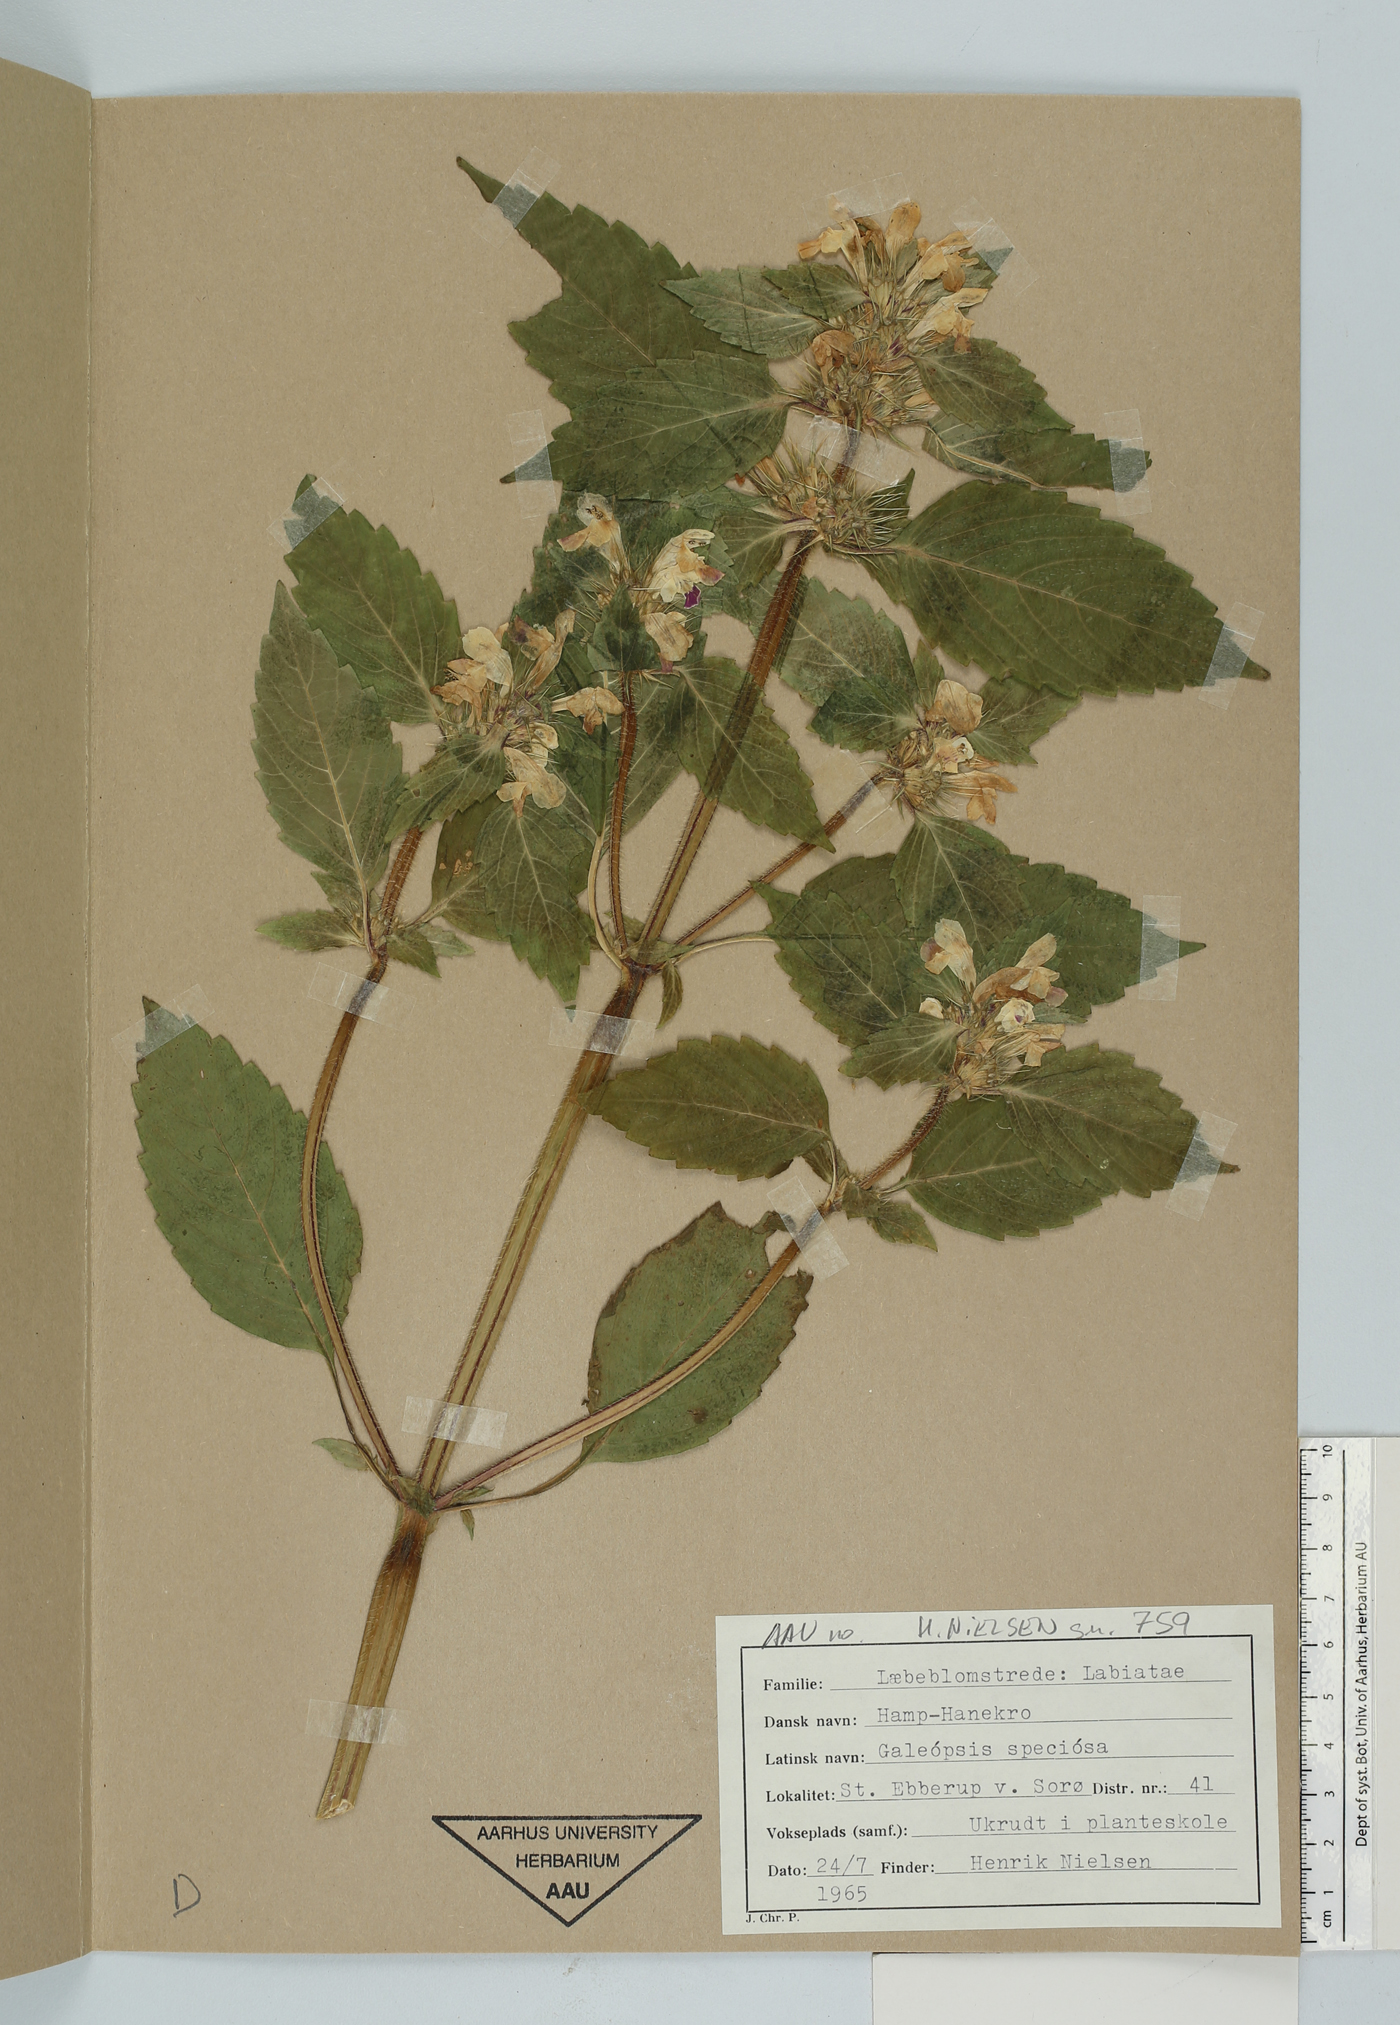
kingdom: Plantae
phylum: Tracheophyta
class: Magnoliopsida
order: Lamiales
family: Lamiaceae
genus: Galeopsis
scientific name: Galeopsis speciosa
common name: Large-flowered hemp-nettle
